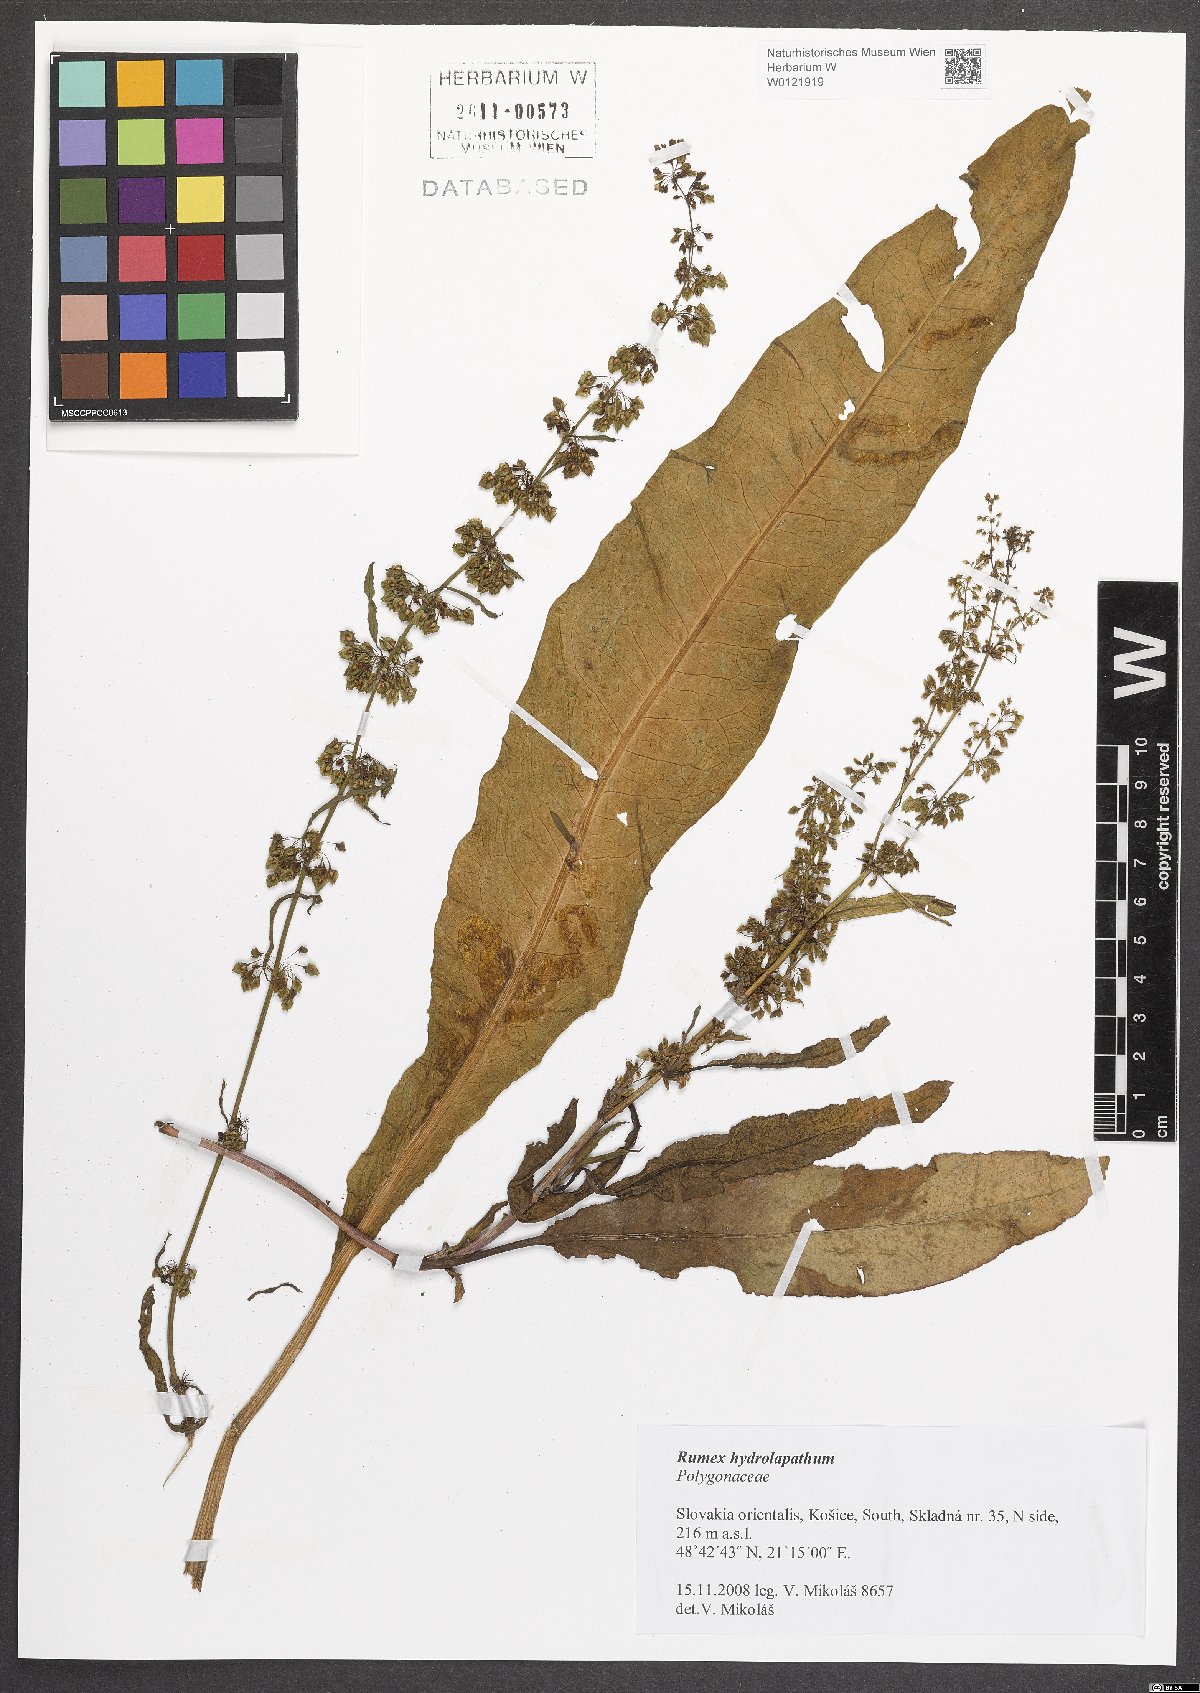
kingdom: Plantae
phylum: Tracheophyta
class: Magnoliopsida
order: Caryophyllales
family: Polygonaceae
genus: Rumex
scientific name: Rumex hydrolapathum
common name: Water dock
